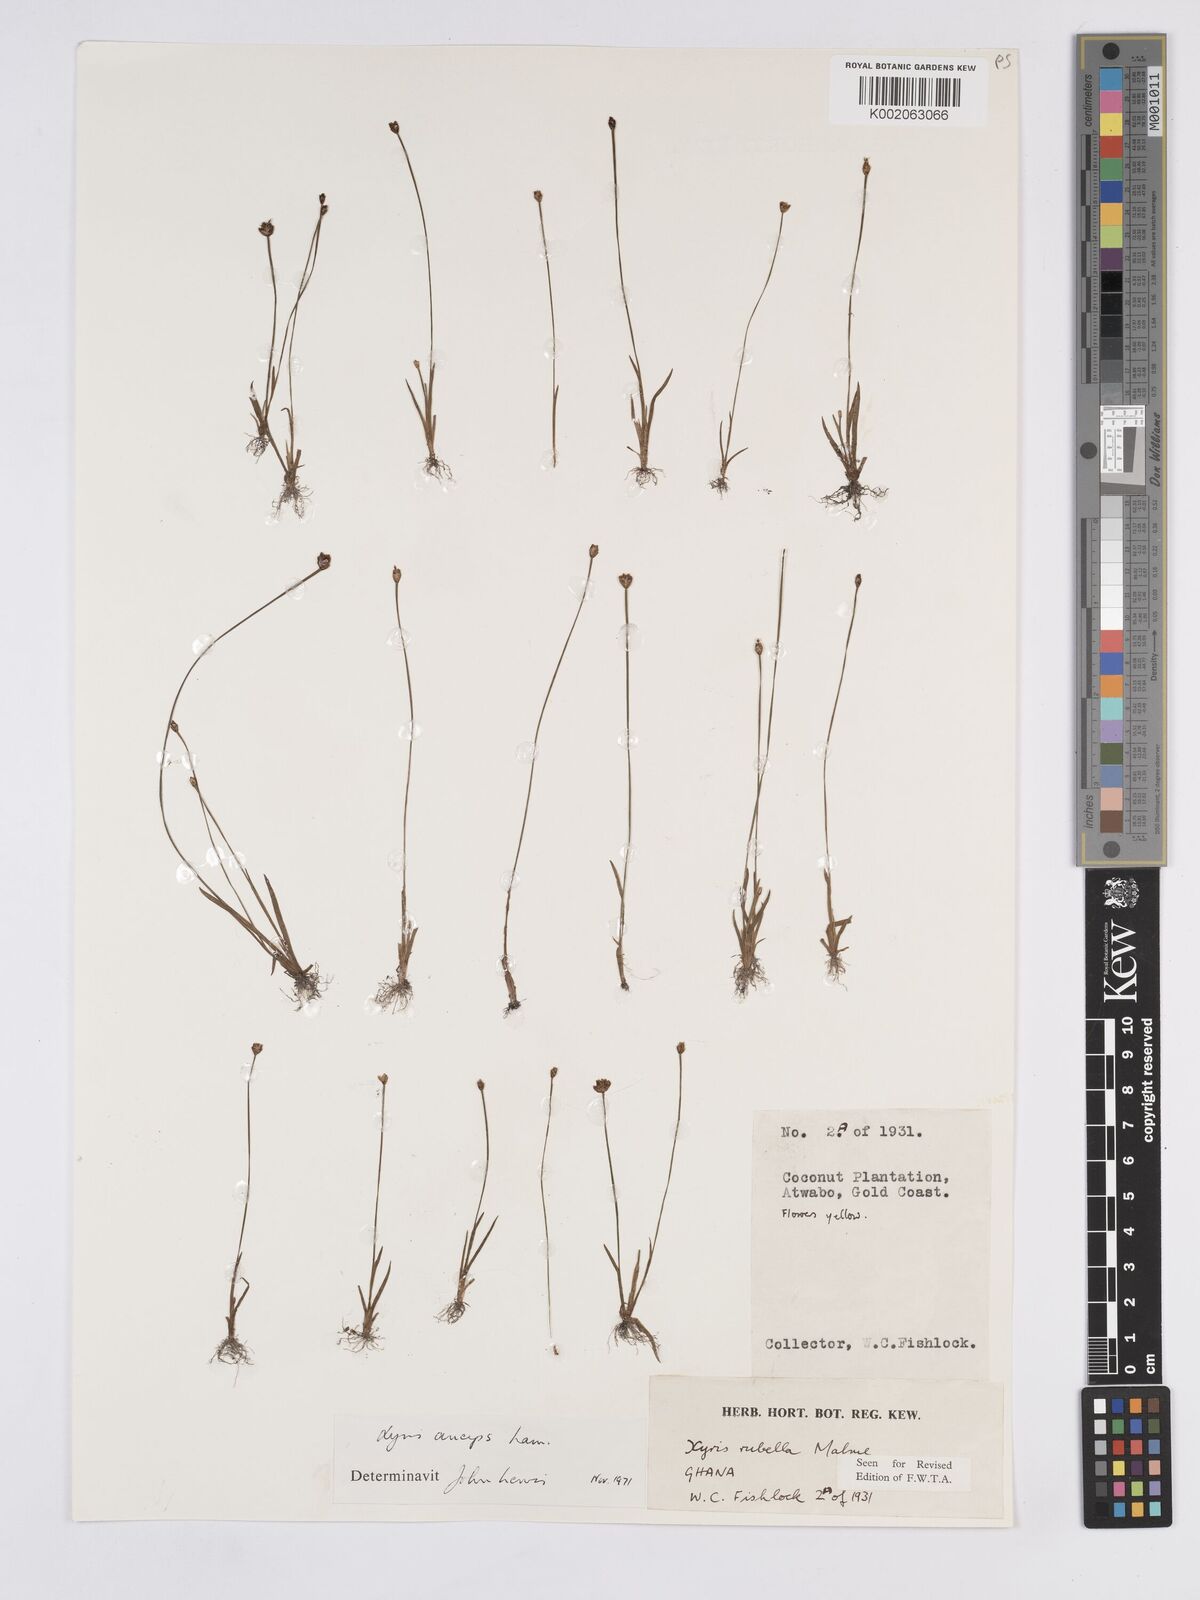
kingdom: Plantae
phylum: Tracheophyta
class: Liliopsida
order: Poales
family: Xyridaceae
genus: Xyris
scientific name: Xyris anceps
